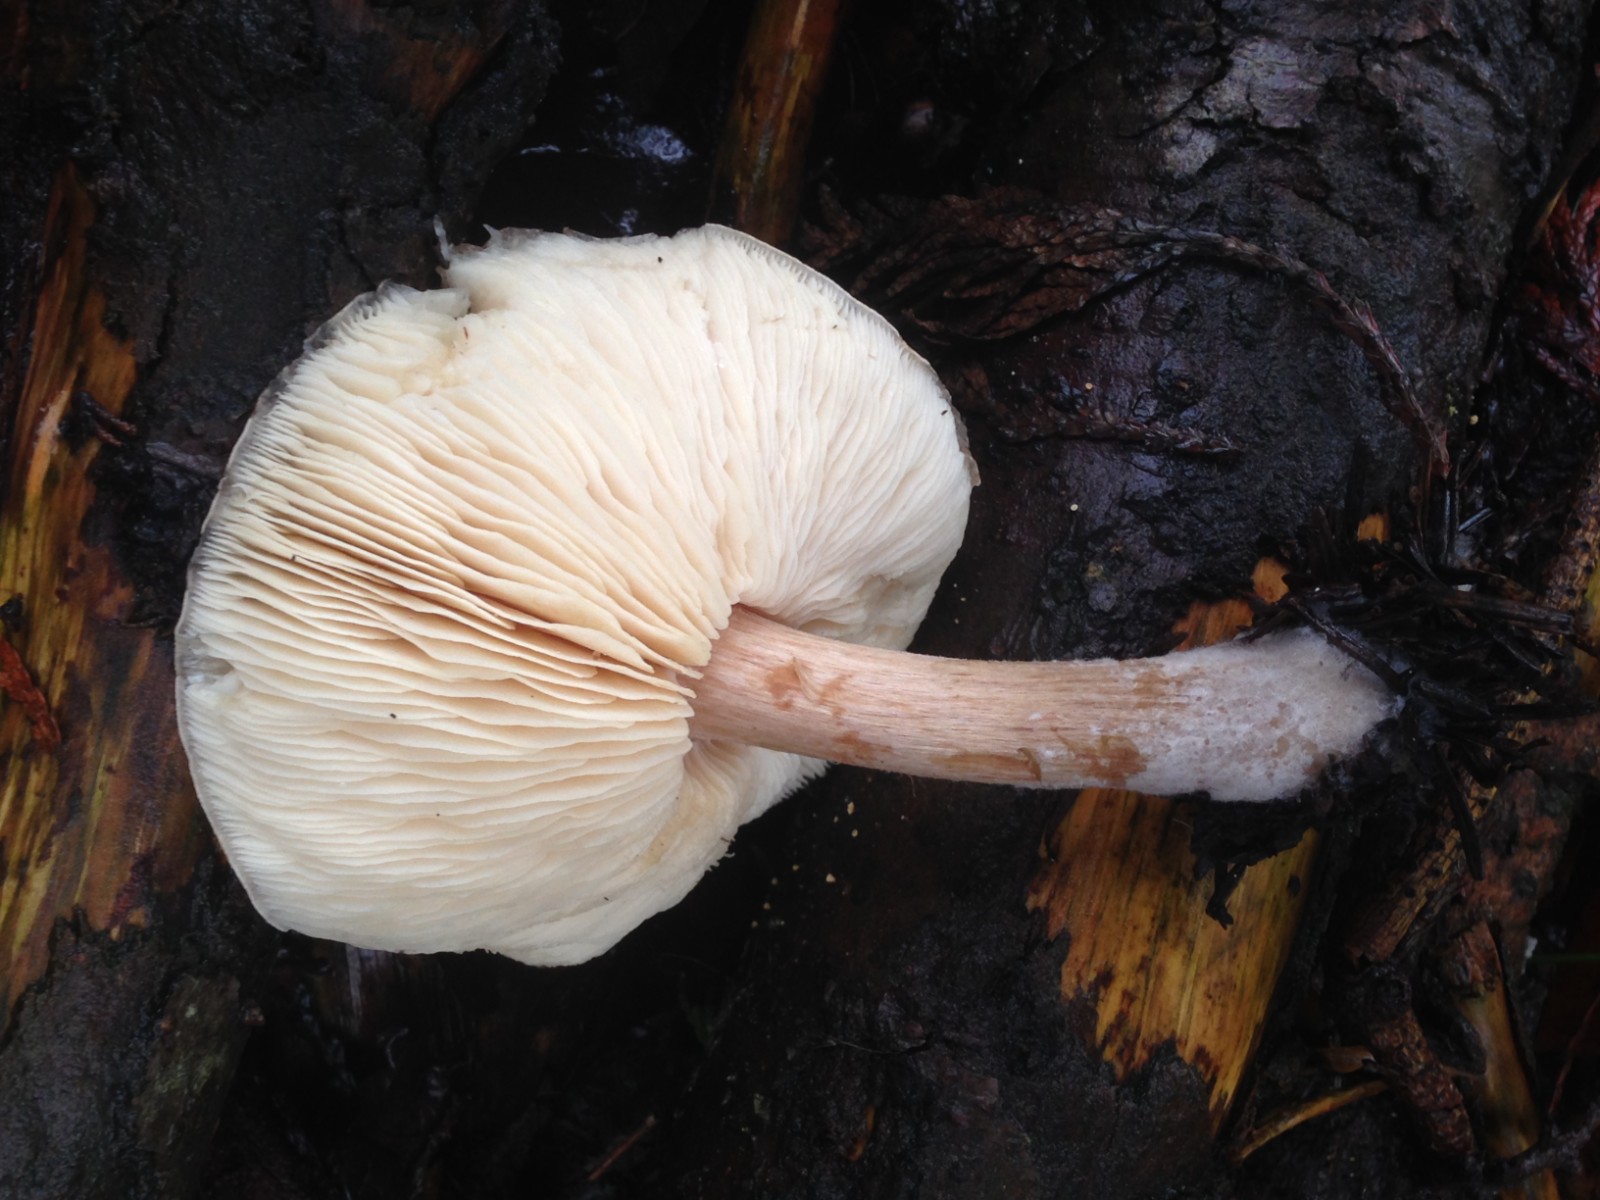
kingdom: Fungi
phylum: Basidiomycota
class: Agaricomycetes
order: Agaricales
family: Tricholomataceae
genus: Melanoleuca
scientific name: Melanoleuca cognata
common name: gyldengrå munkehat
